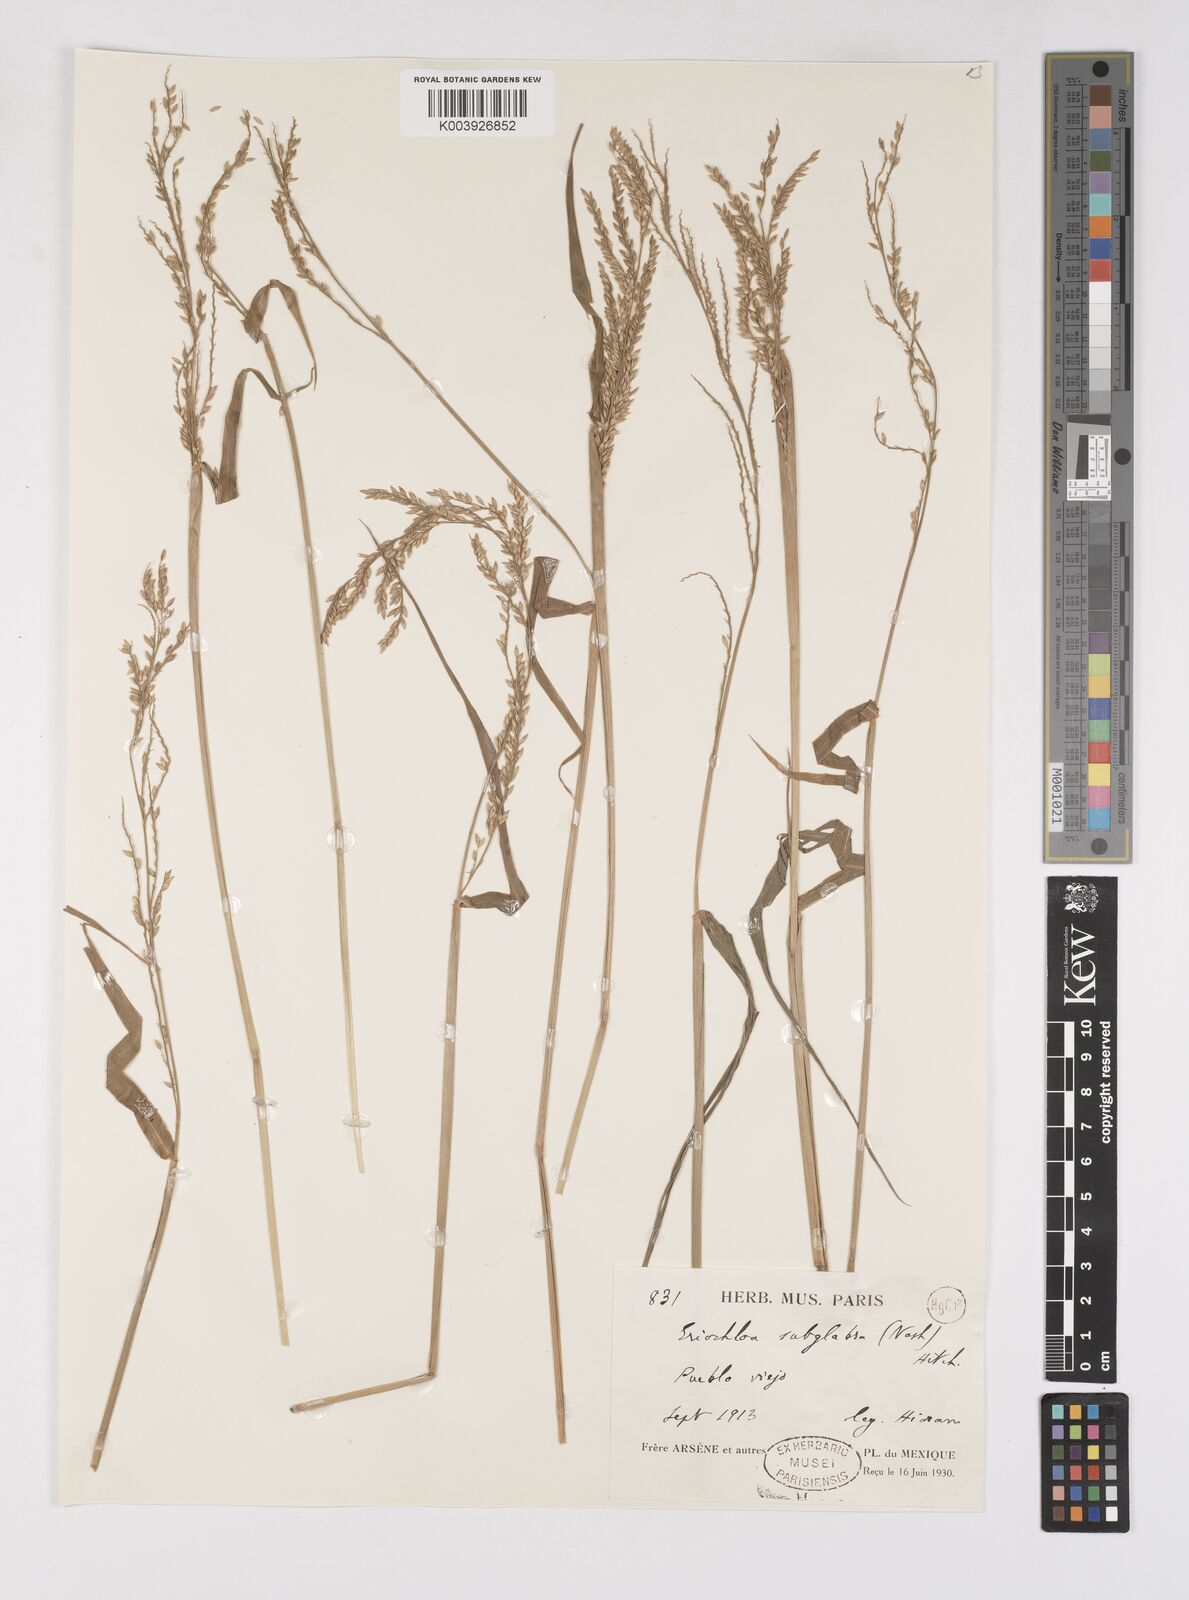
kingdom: Plantae
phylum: Tracheophyta
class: Liliopsida
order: Poales
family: Poaceae
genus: Urochloa
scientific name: Urochloa polystachya
